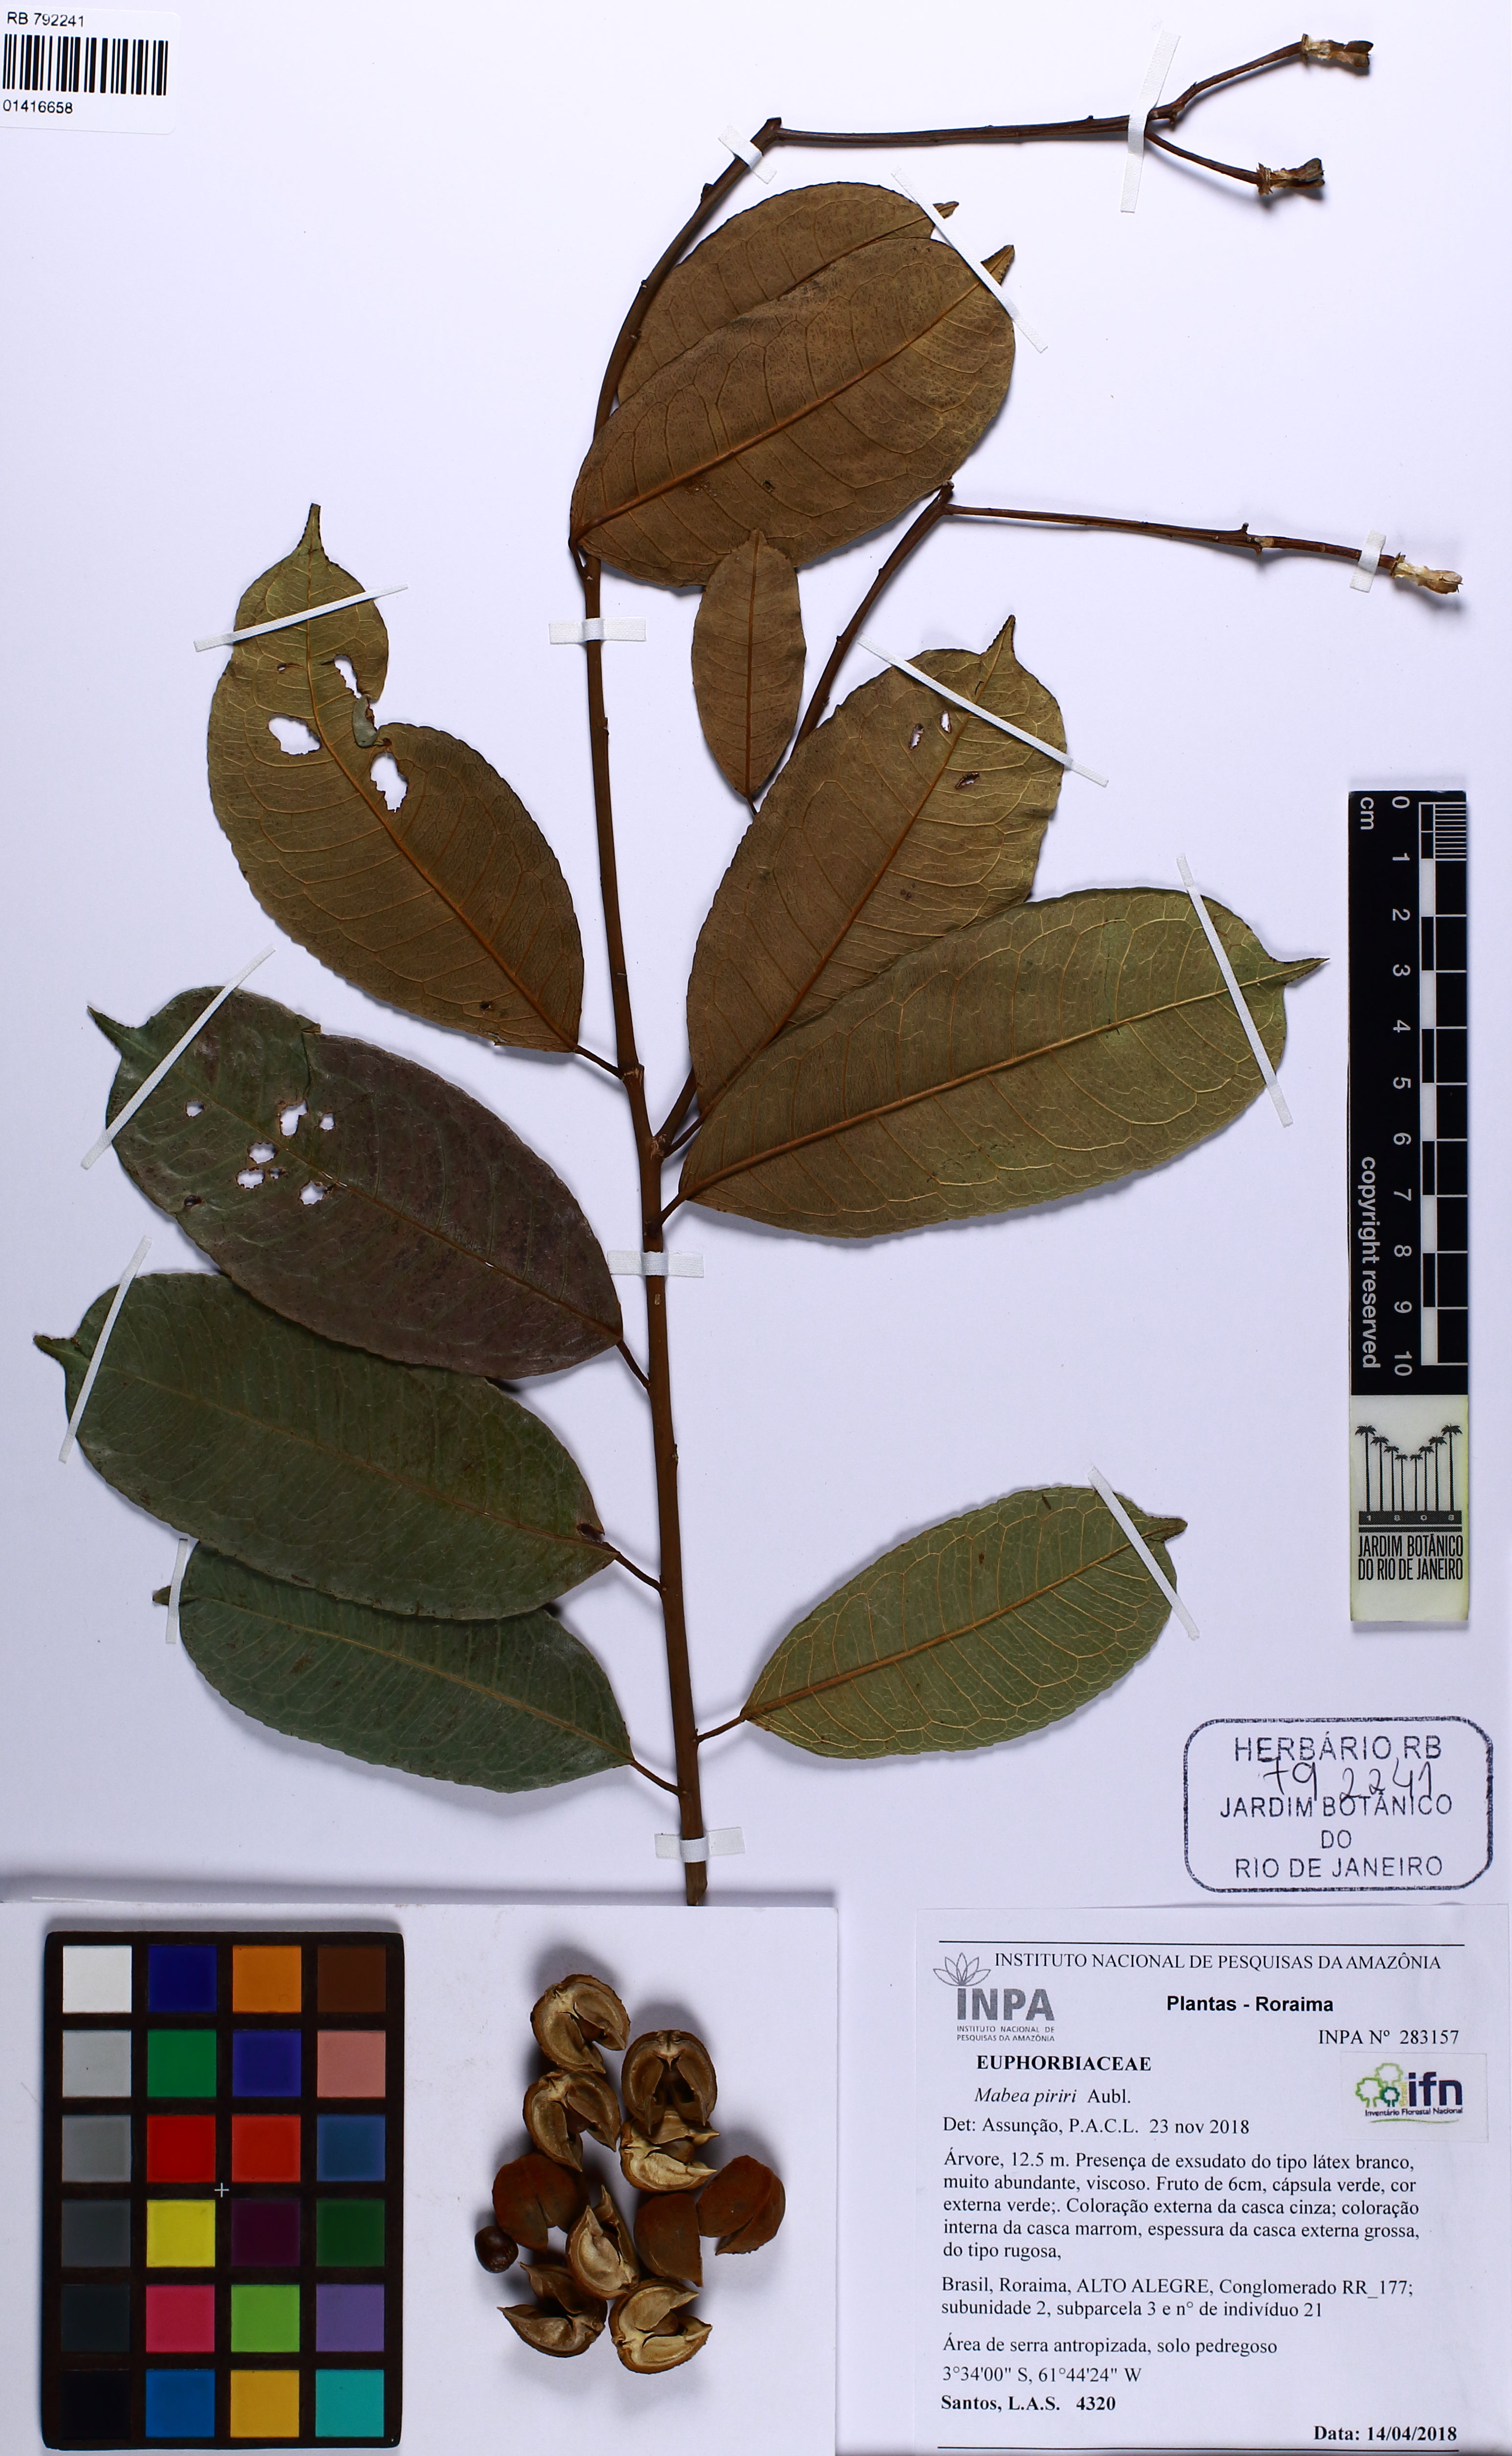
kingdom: Plantae
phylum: Tracheophyta
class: Magnoliopsida
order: Malpighiales
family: Euphorbiaceae
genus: Mabea
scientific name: Mabea piriri
